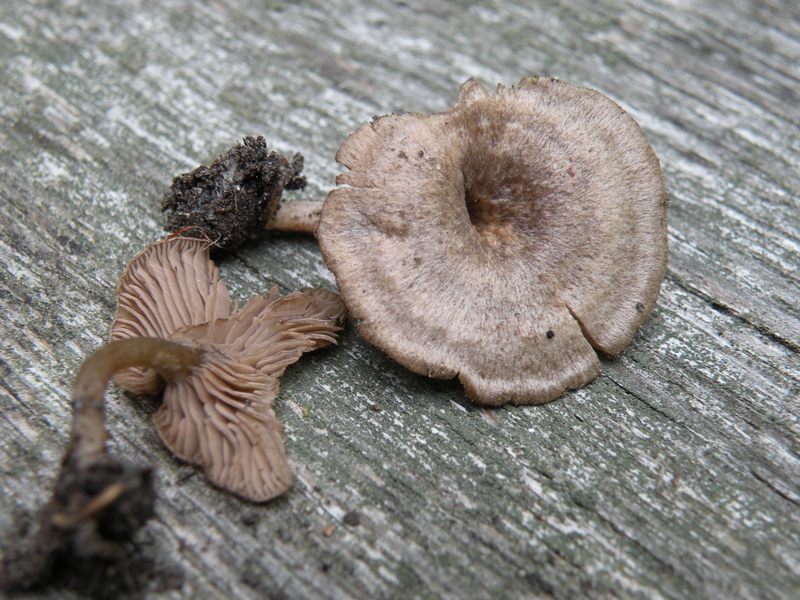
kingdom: Fungi
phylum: Basidiomycota
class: Agaricomycetes
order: Agaricales
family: Entolomataceae
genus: Entoloma
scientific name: Entoloma undatum
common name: bæltet rødblad
